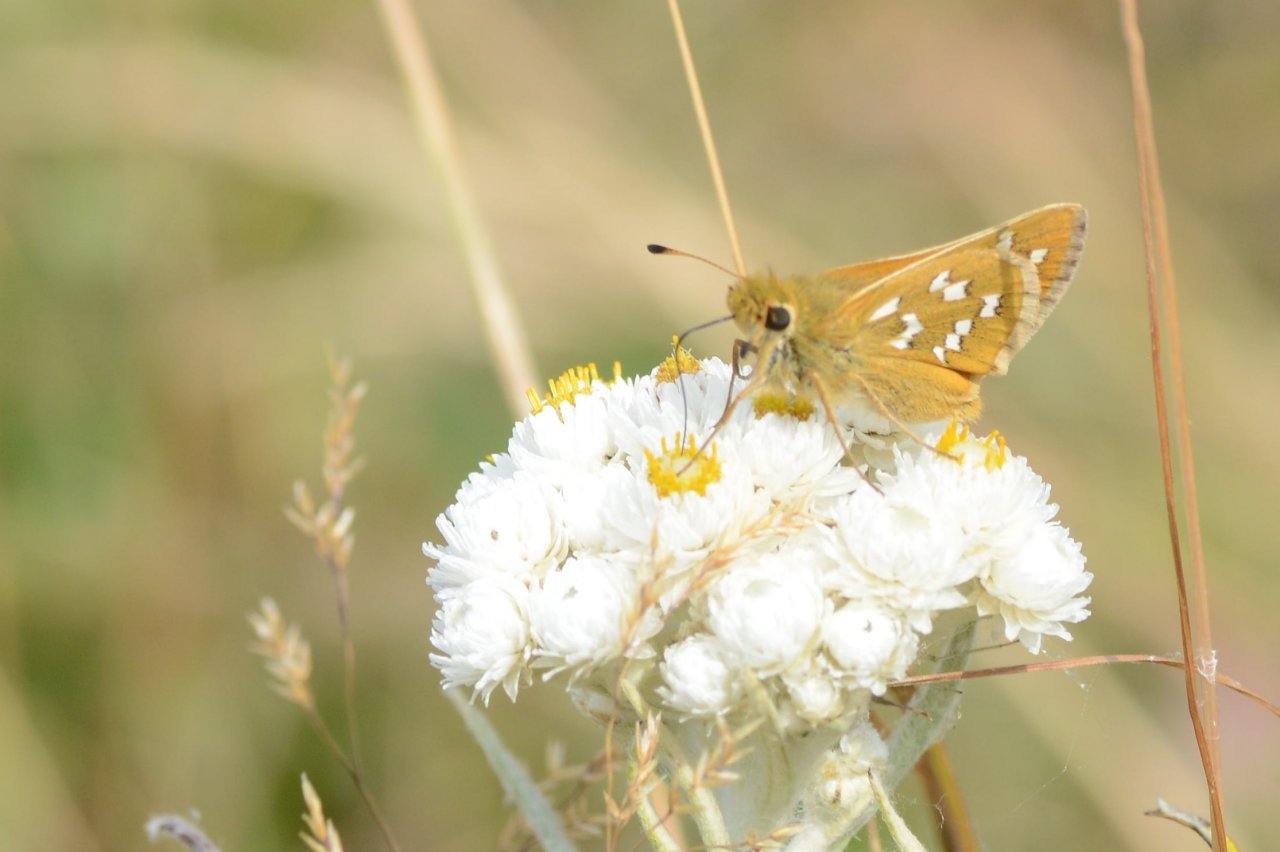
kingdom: Animalia
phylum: Arthropoda
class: Insecta
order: Lepidoptera
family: Hesperiidae
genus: Hesperia
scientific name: Hesperia comma
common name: Common Branded Skipper
